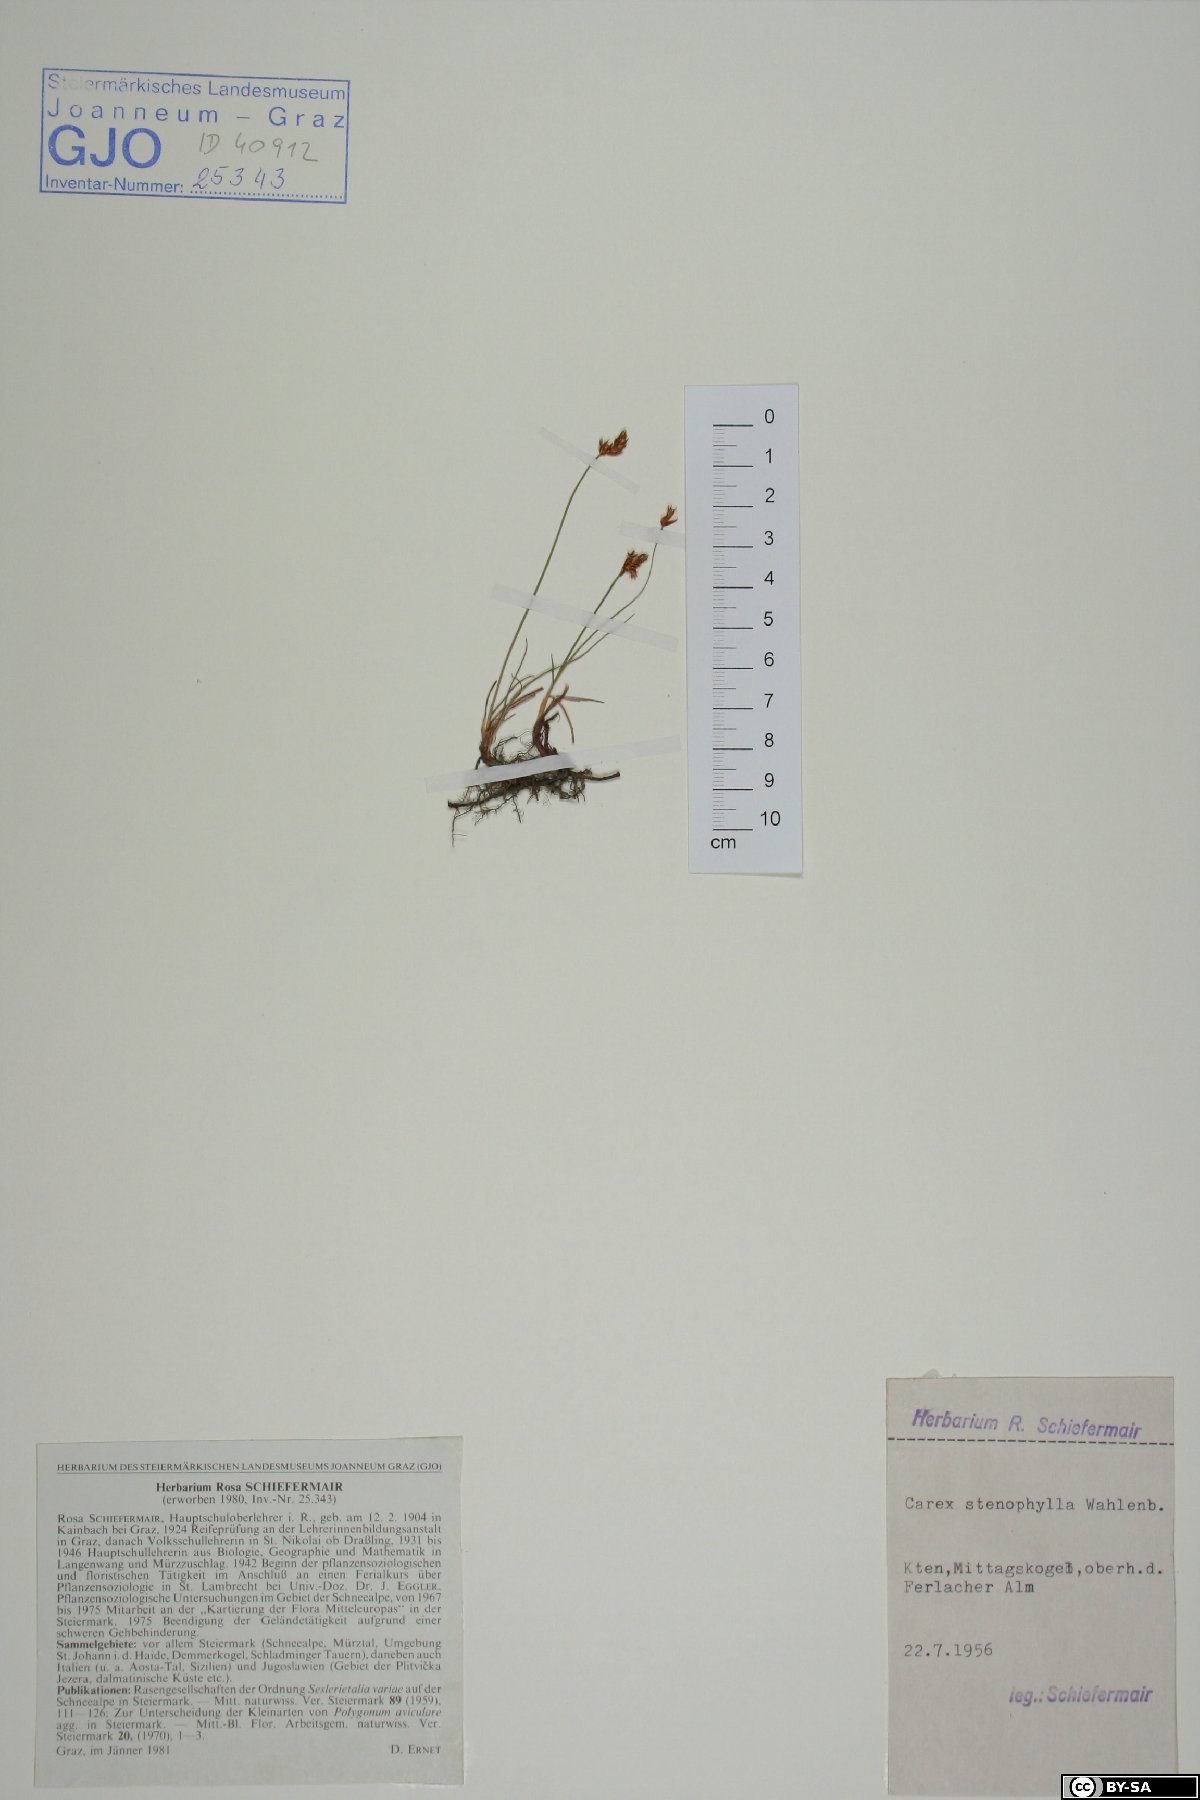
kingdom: Plantae
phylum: Tracheophyta
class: Liliopsida
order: Poales
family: Cyperaceae
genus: Carex
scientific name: Carex stenophylla
